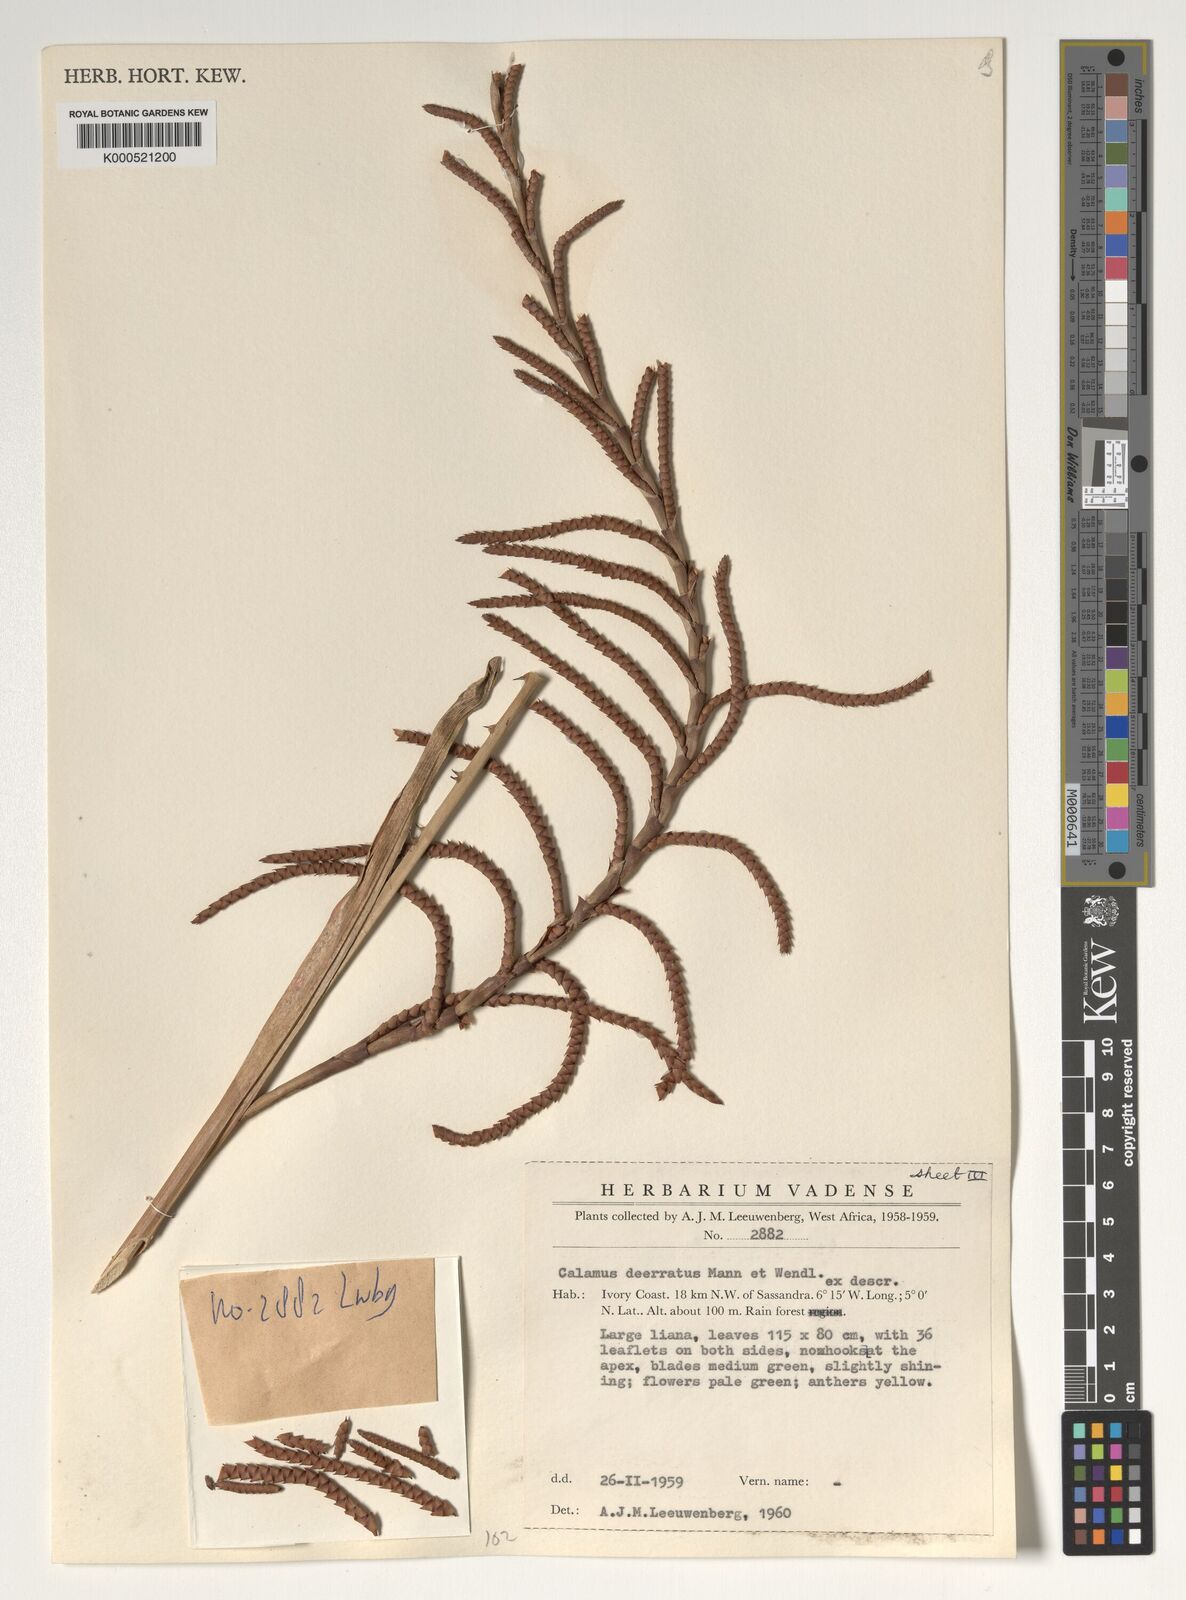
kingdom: Plantae
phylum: Tracheophyta
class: Liliopsida
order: Arecales
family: Arecaceae
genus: Calamus
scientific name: Calamus deerratus
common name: Rattan
